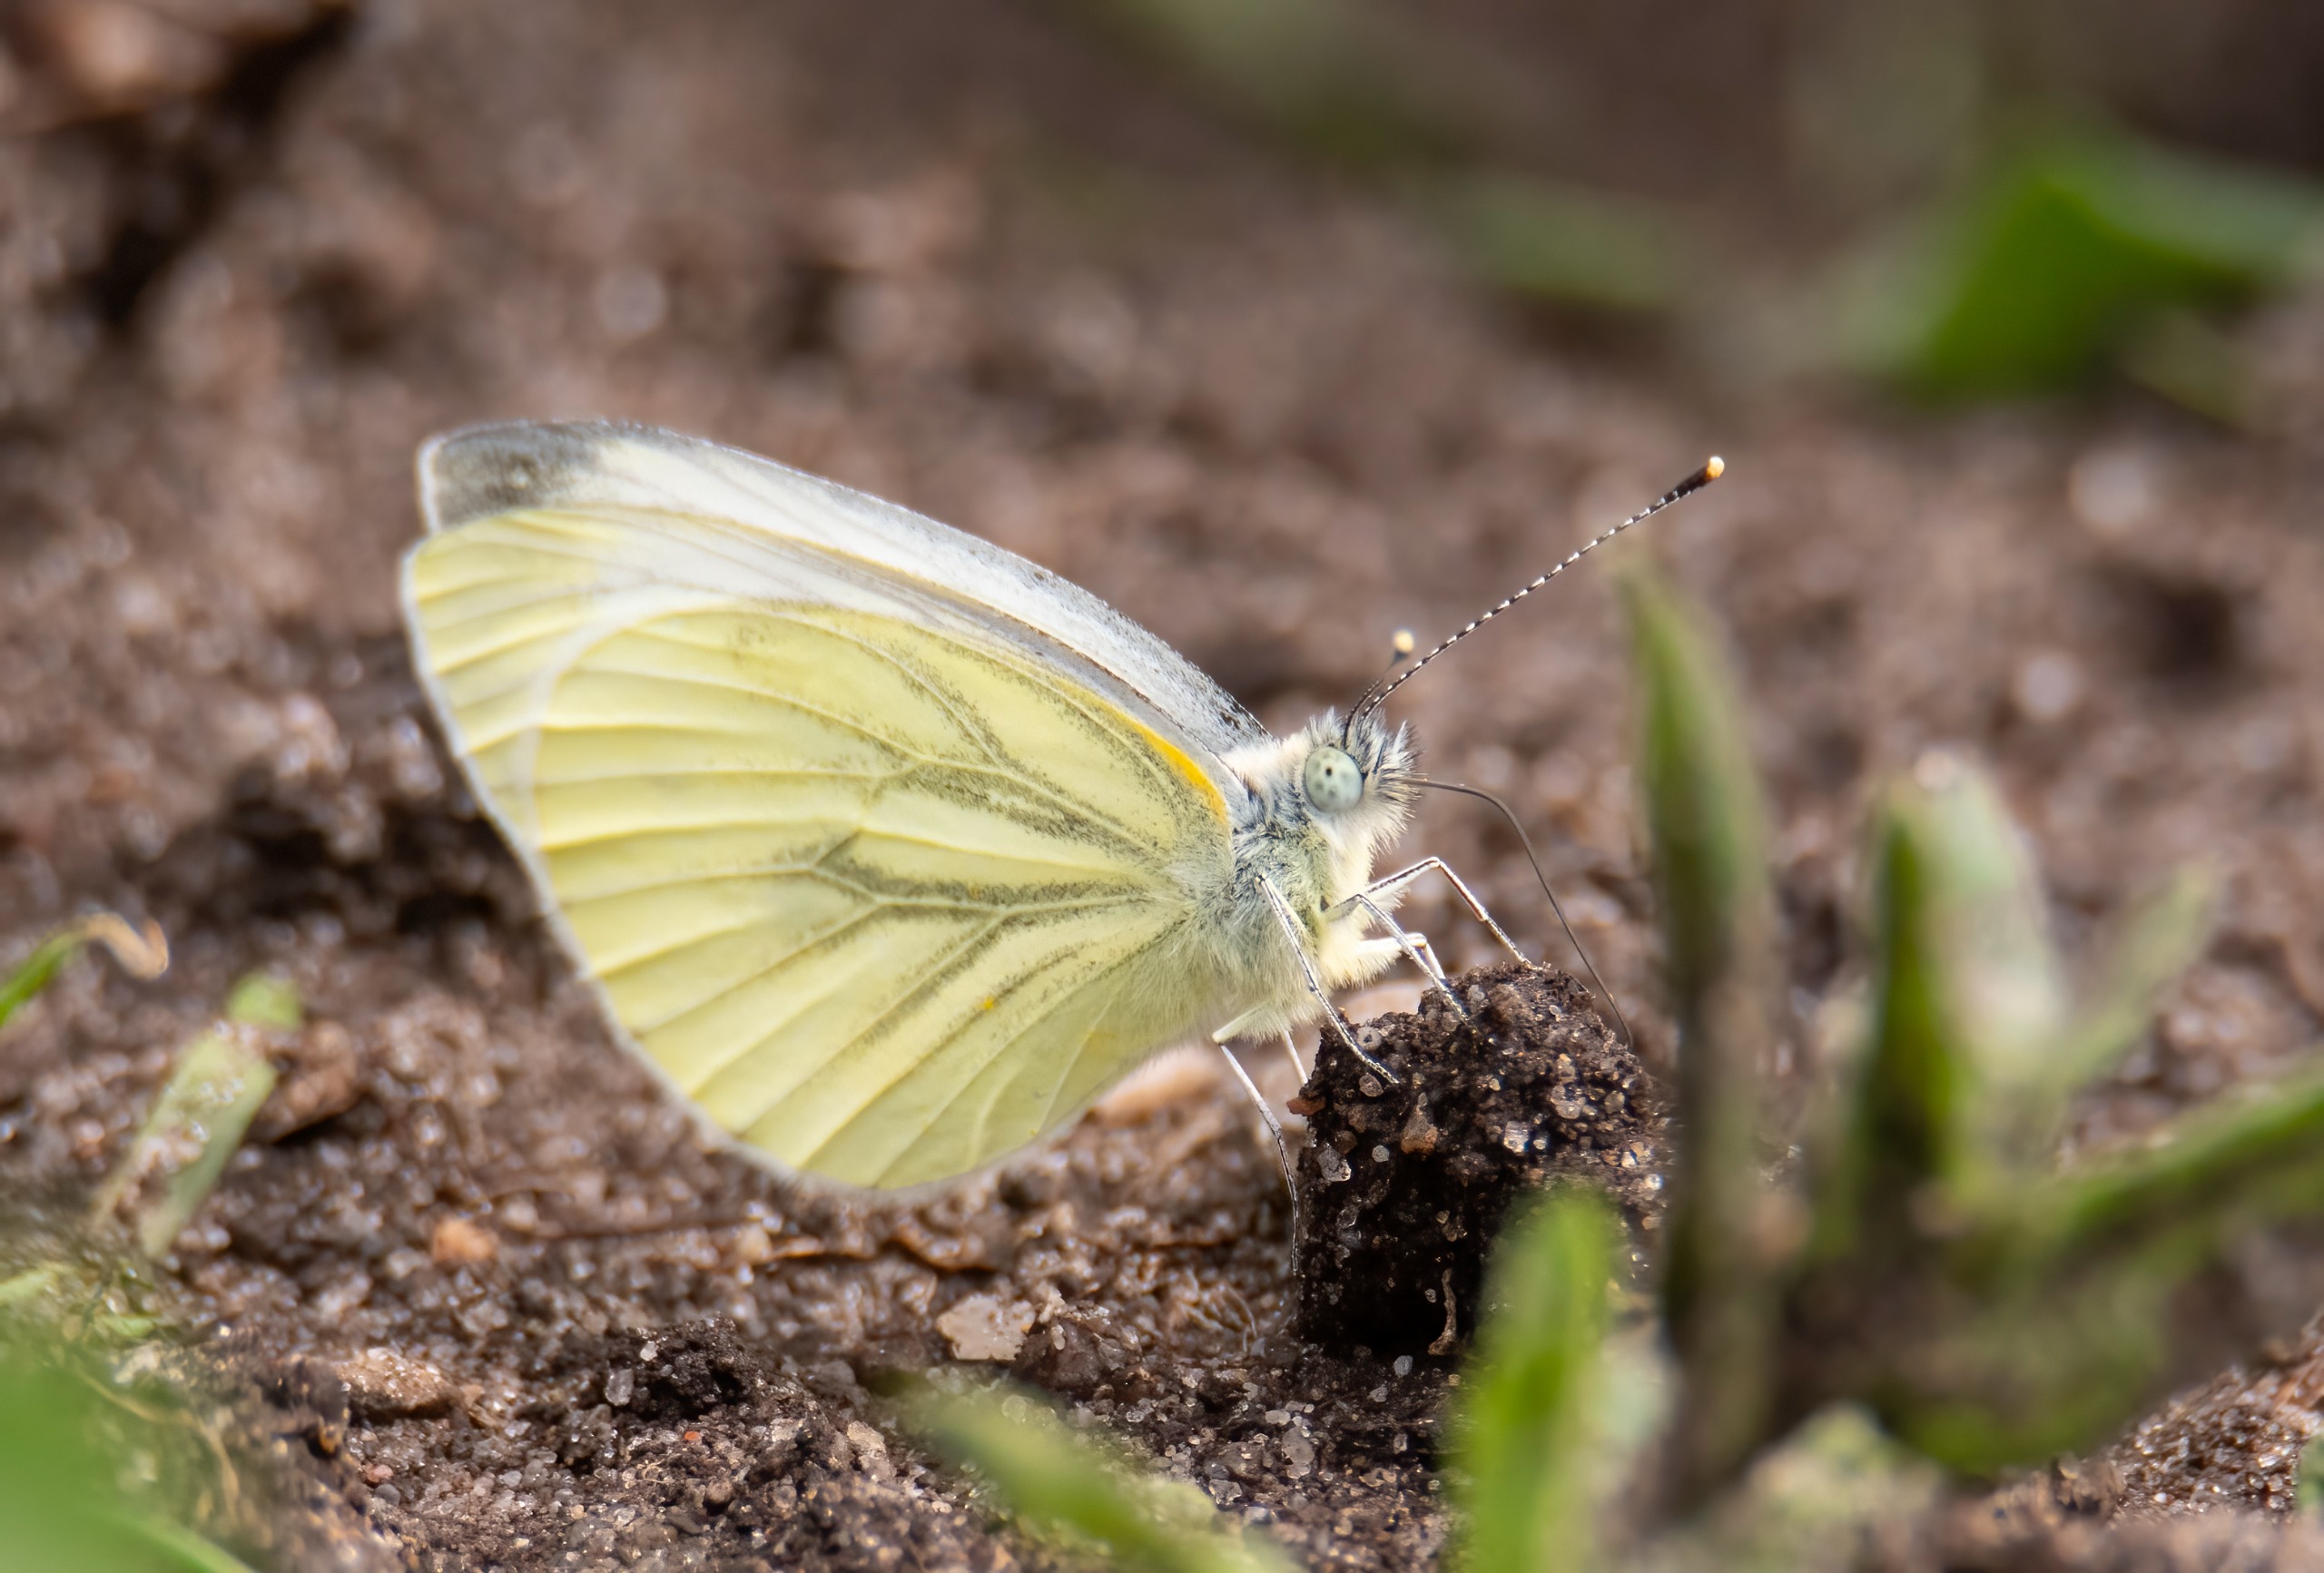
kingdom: Animalia
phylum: Arthropoda
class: Insecta
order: Lepidoptera
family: Pieridae
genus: Pieris
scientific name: Pieris napi
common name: Grønåret kålsommerfugl
